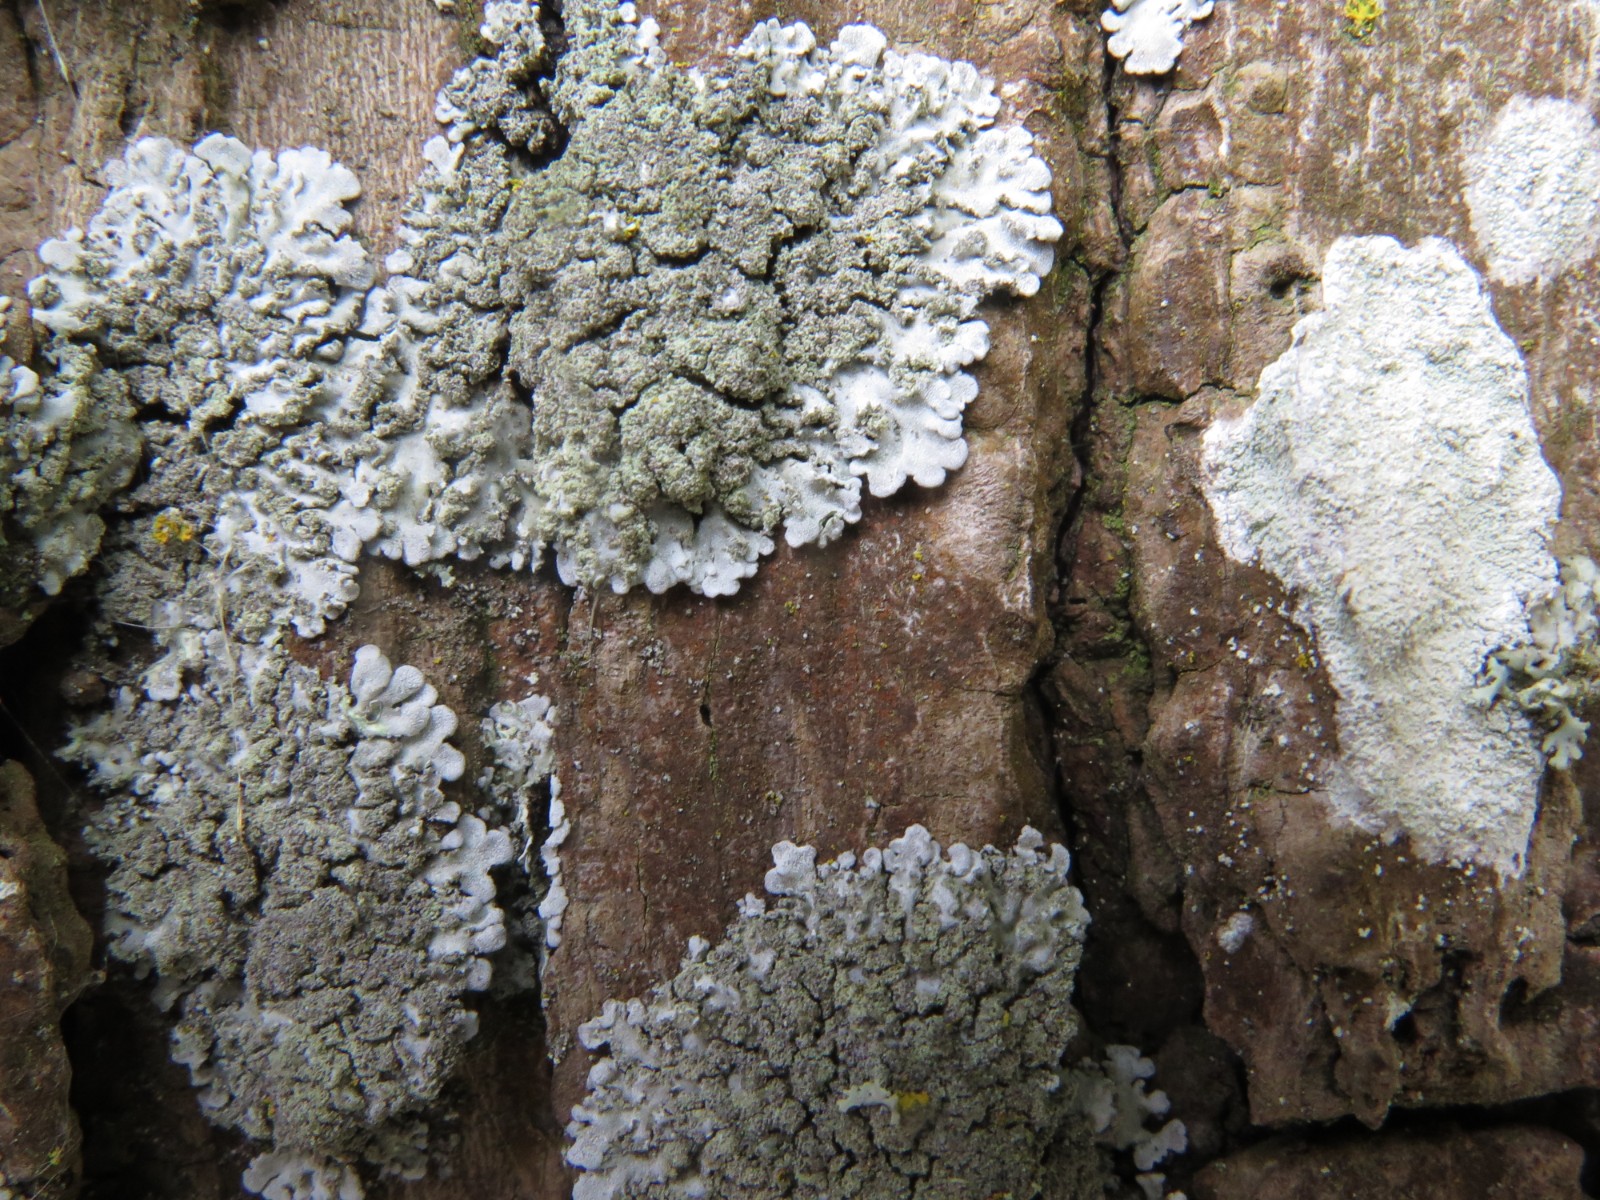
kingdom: Fungi
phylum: Ascomycota
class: Lecanoromycetes
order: Caliciales
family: Physciaceae
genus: Phaeophyscia
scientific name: Phaeophyscia orbicularis
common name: grågrøn rosetlav
